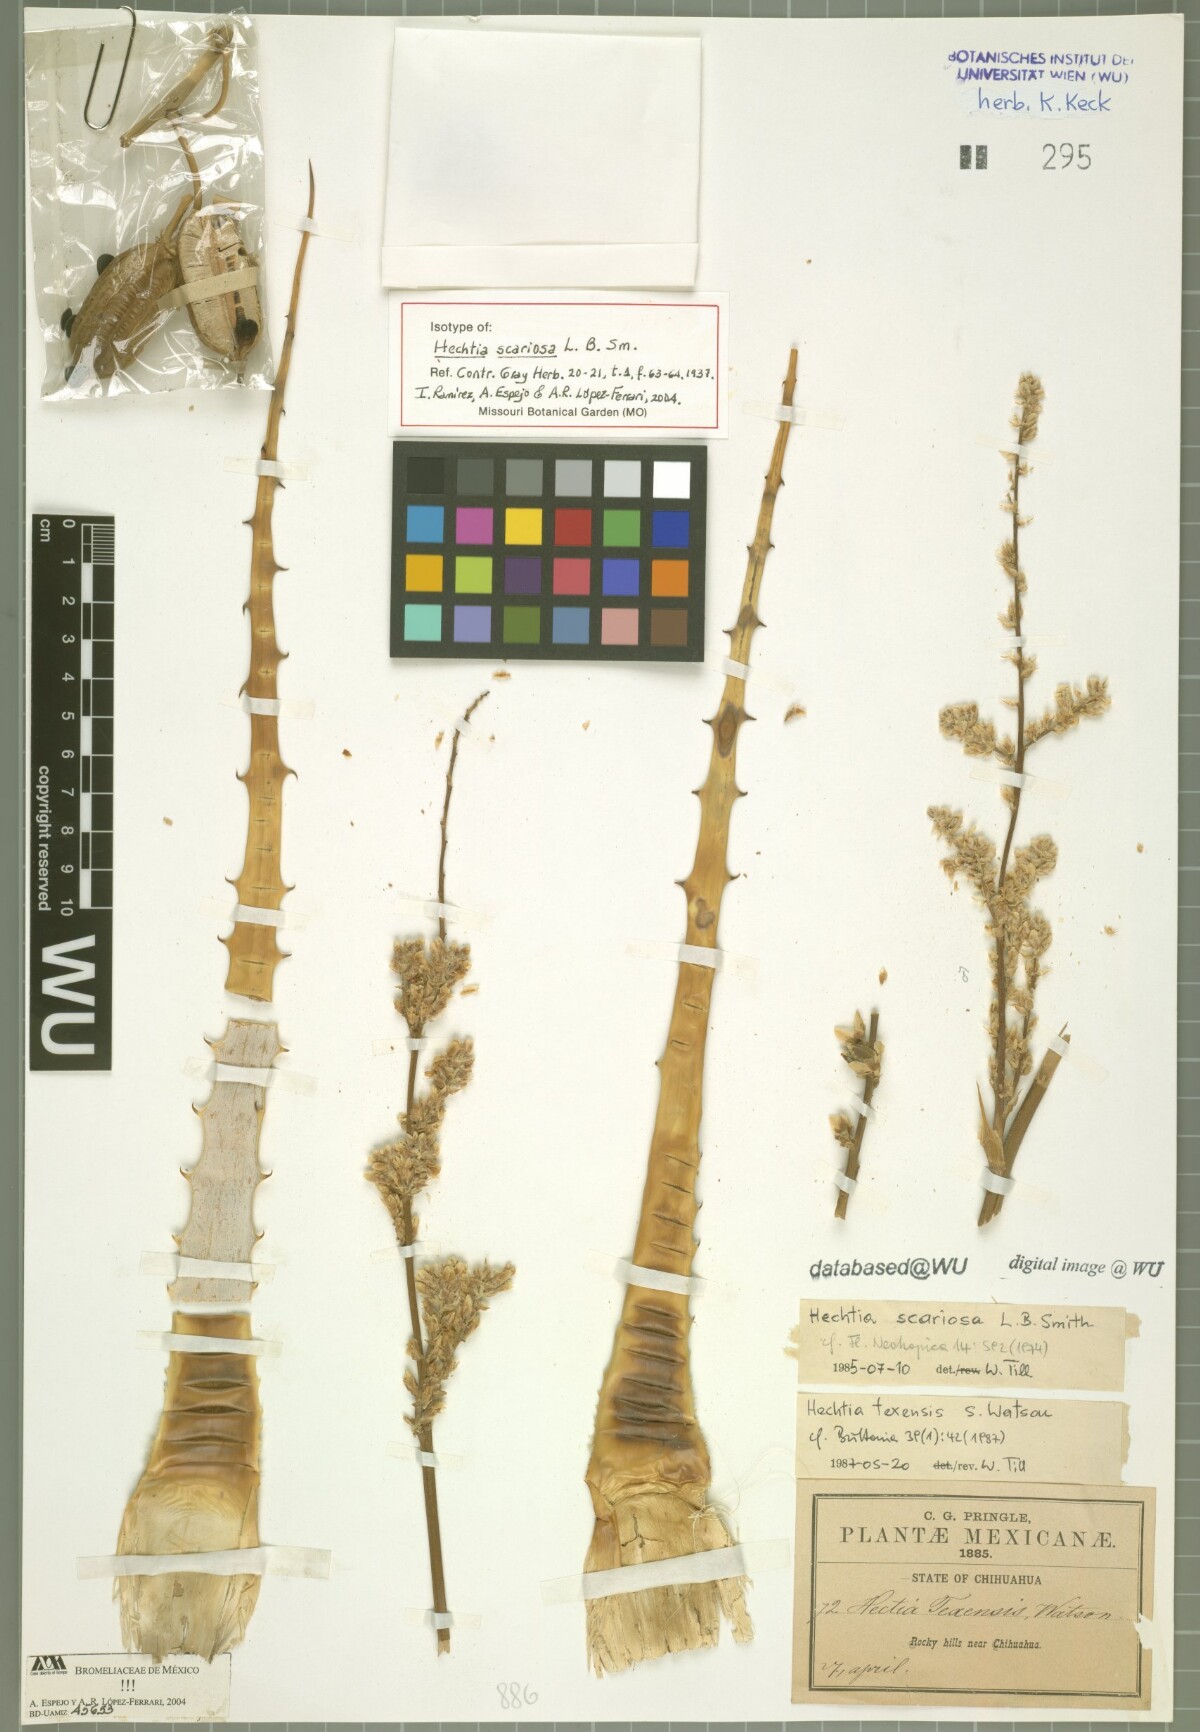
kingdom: Plantae
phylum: Tracheophyta
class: Liliopsida
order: Poales
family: Bromeliaceae
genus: Hechtia
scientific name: Hechtia texensis
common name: False agave
